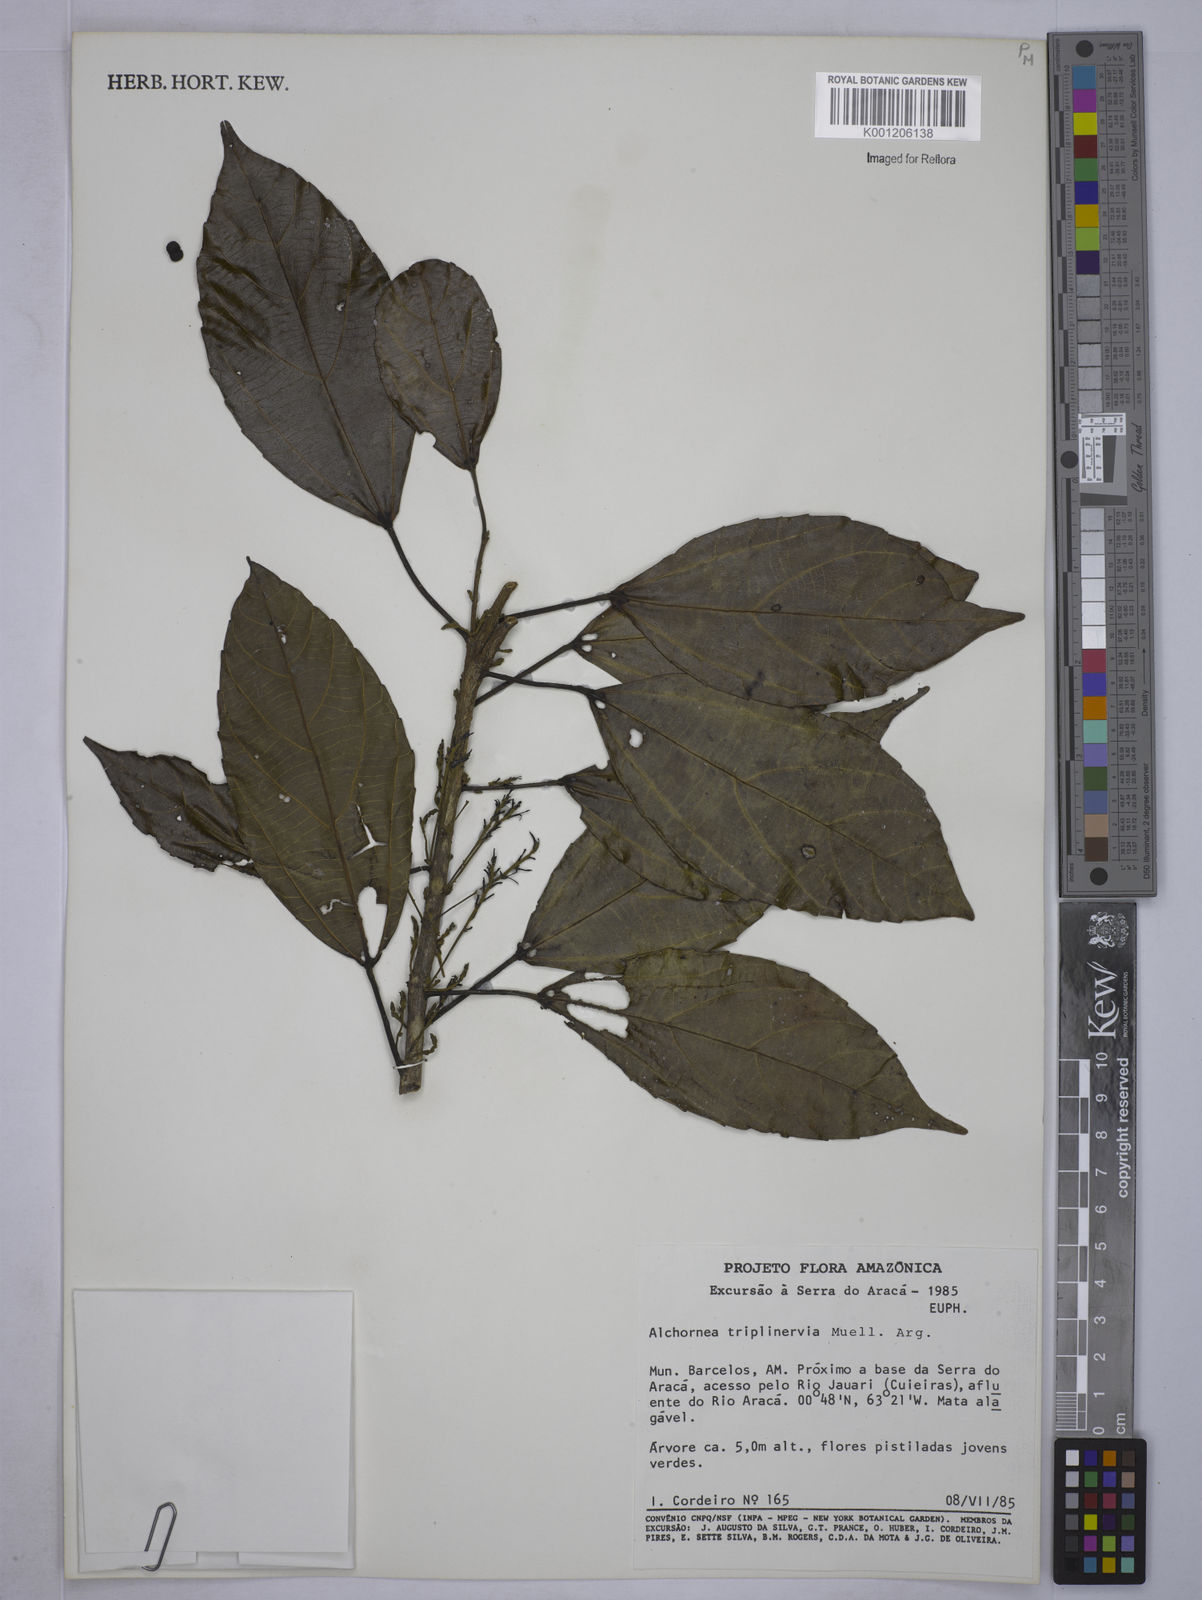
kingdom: Plantae
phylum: Tracheophyta
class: Magnoliopsida
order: Malpighiales
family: Euphorbiaceae
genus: Alchornea
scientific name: Alchornea
